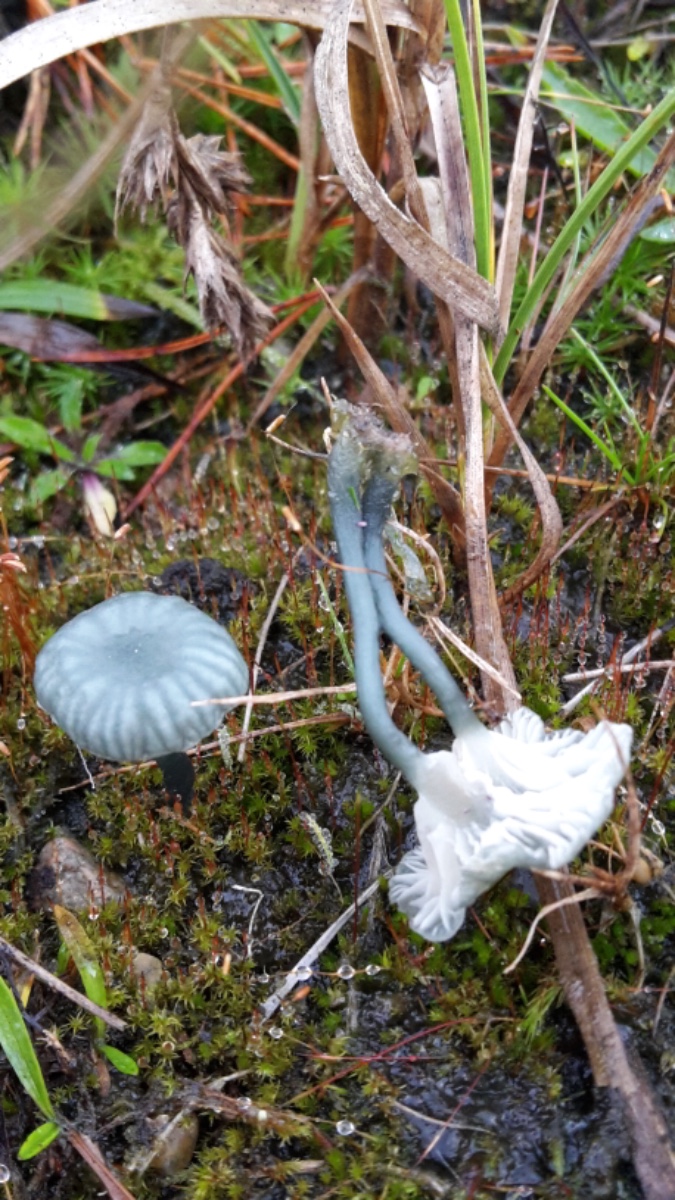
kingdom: Fungi
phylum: Basidiomycota
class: Agaricomycetes
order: Agaricales
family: Hygrophoraceae
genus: Arrhenia
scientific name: Arrhenia chlorocyanea
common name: blågrøn fontænehat
